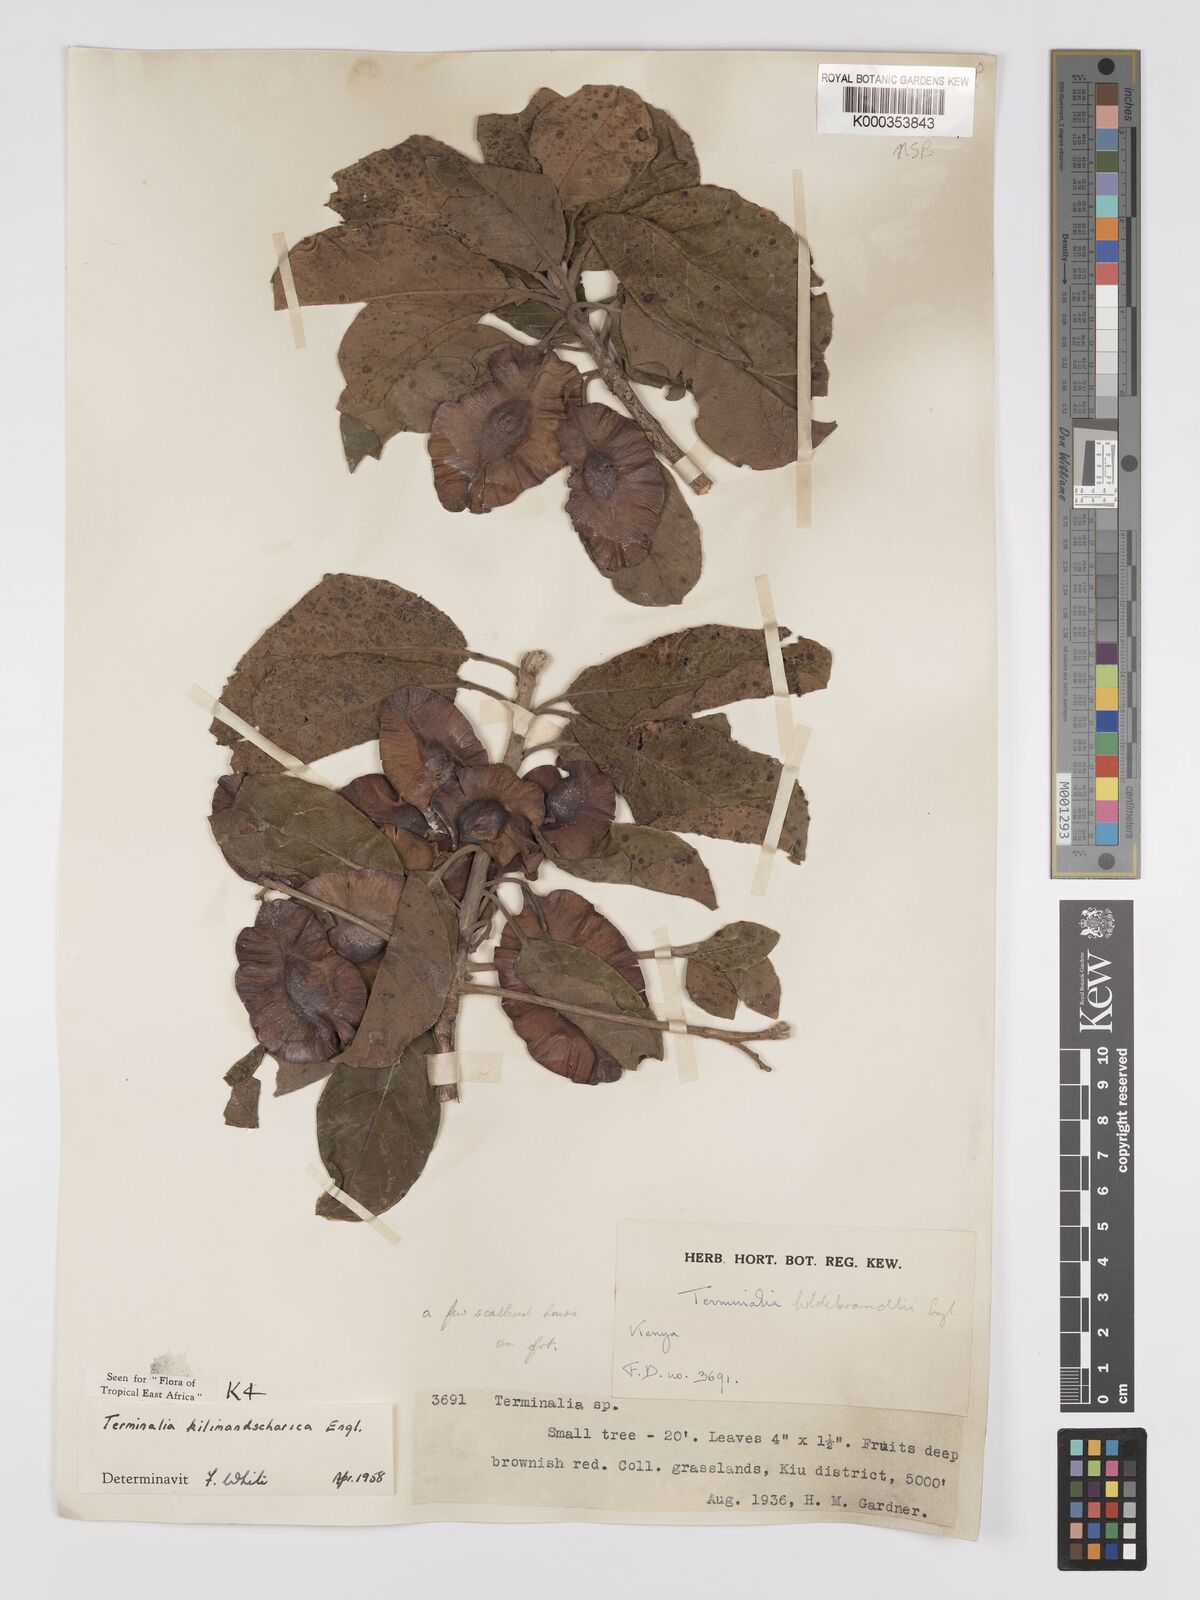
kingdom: Plantae
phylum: Tracheophyta
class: Magnoliopsida
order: Myrtales
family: Combretaceae
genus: Terminalia
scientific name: Terminalia kilimandscharica
